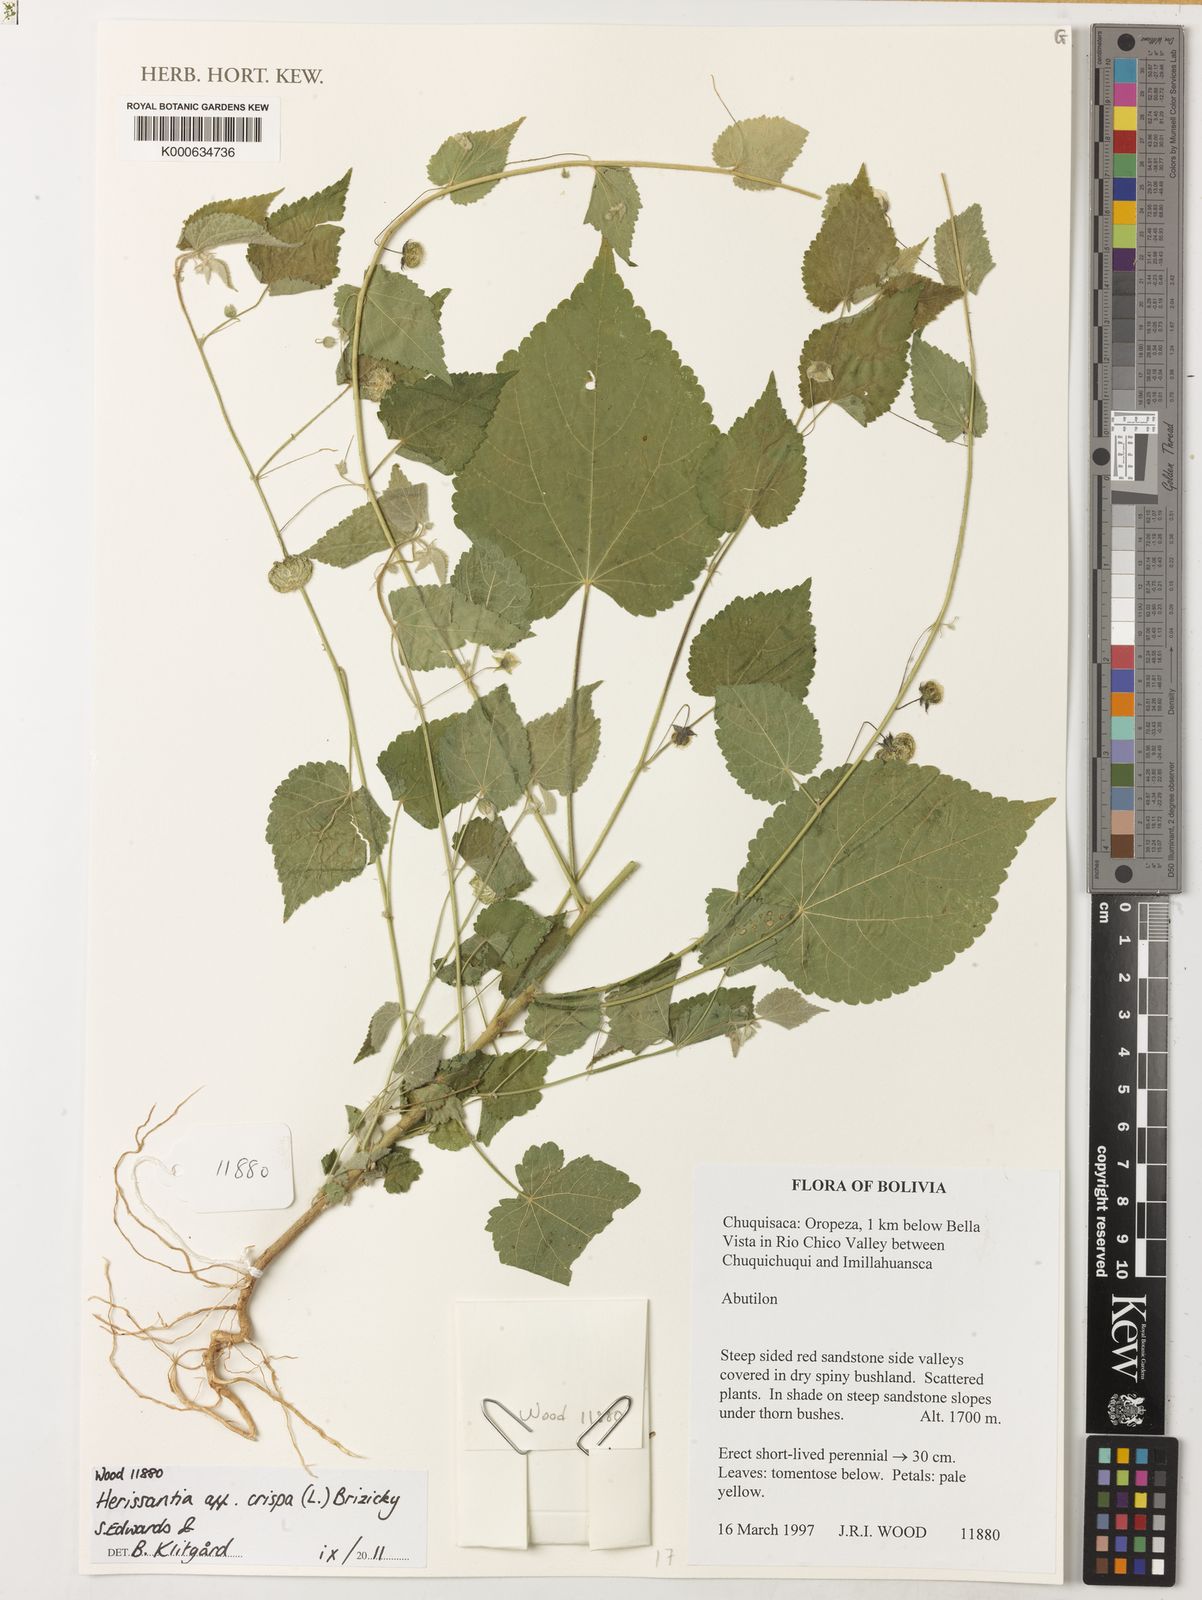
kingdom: Plantae
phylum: Tracheophyta
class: Magnoliopsida
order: Malvales
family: Malvaceae
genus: Herissantia
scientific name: Herissantia crispa
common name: Bladdermallow
